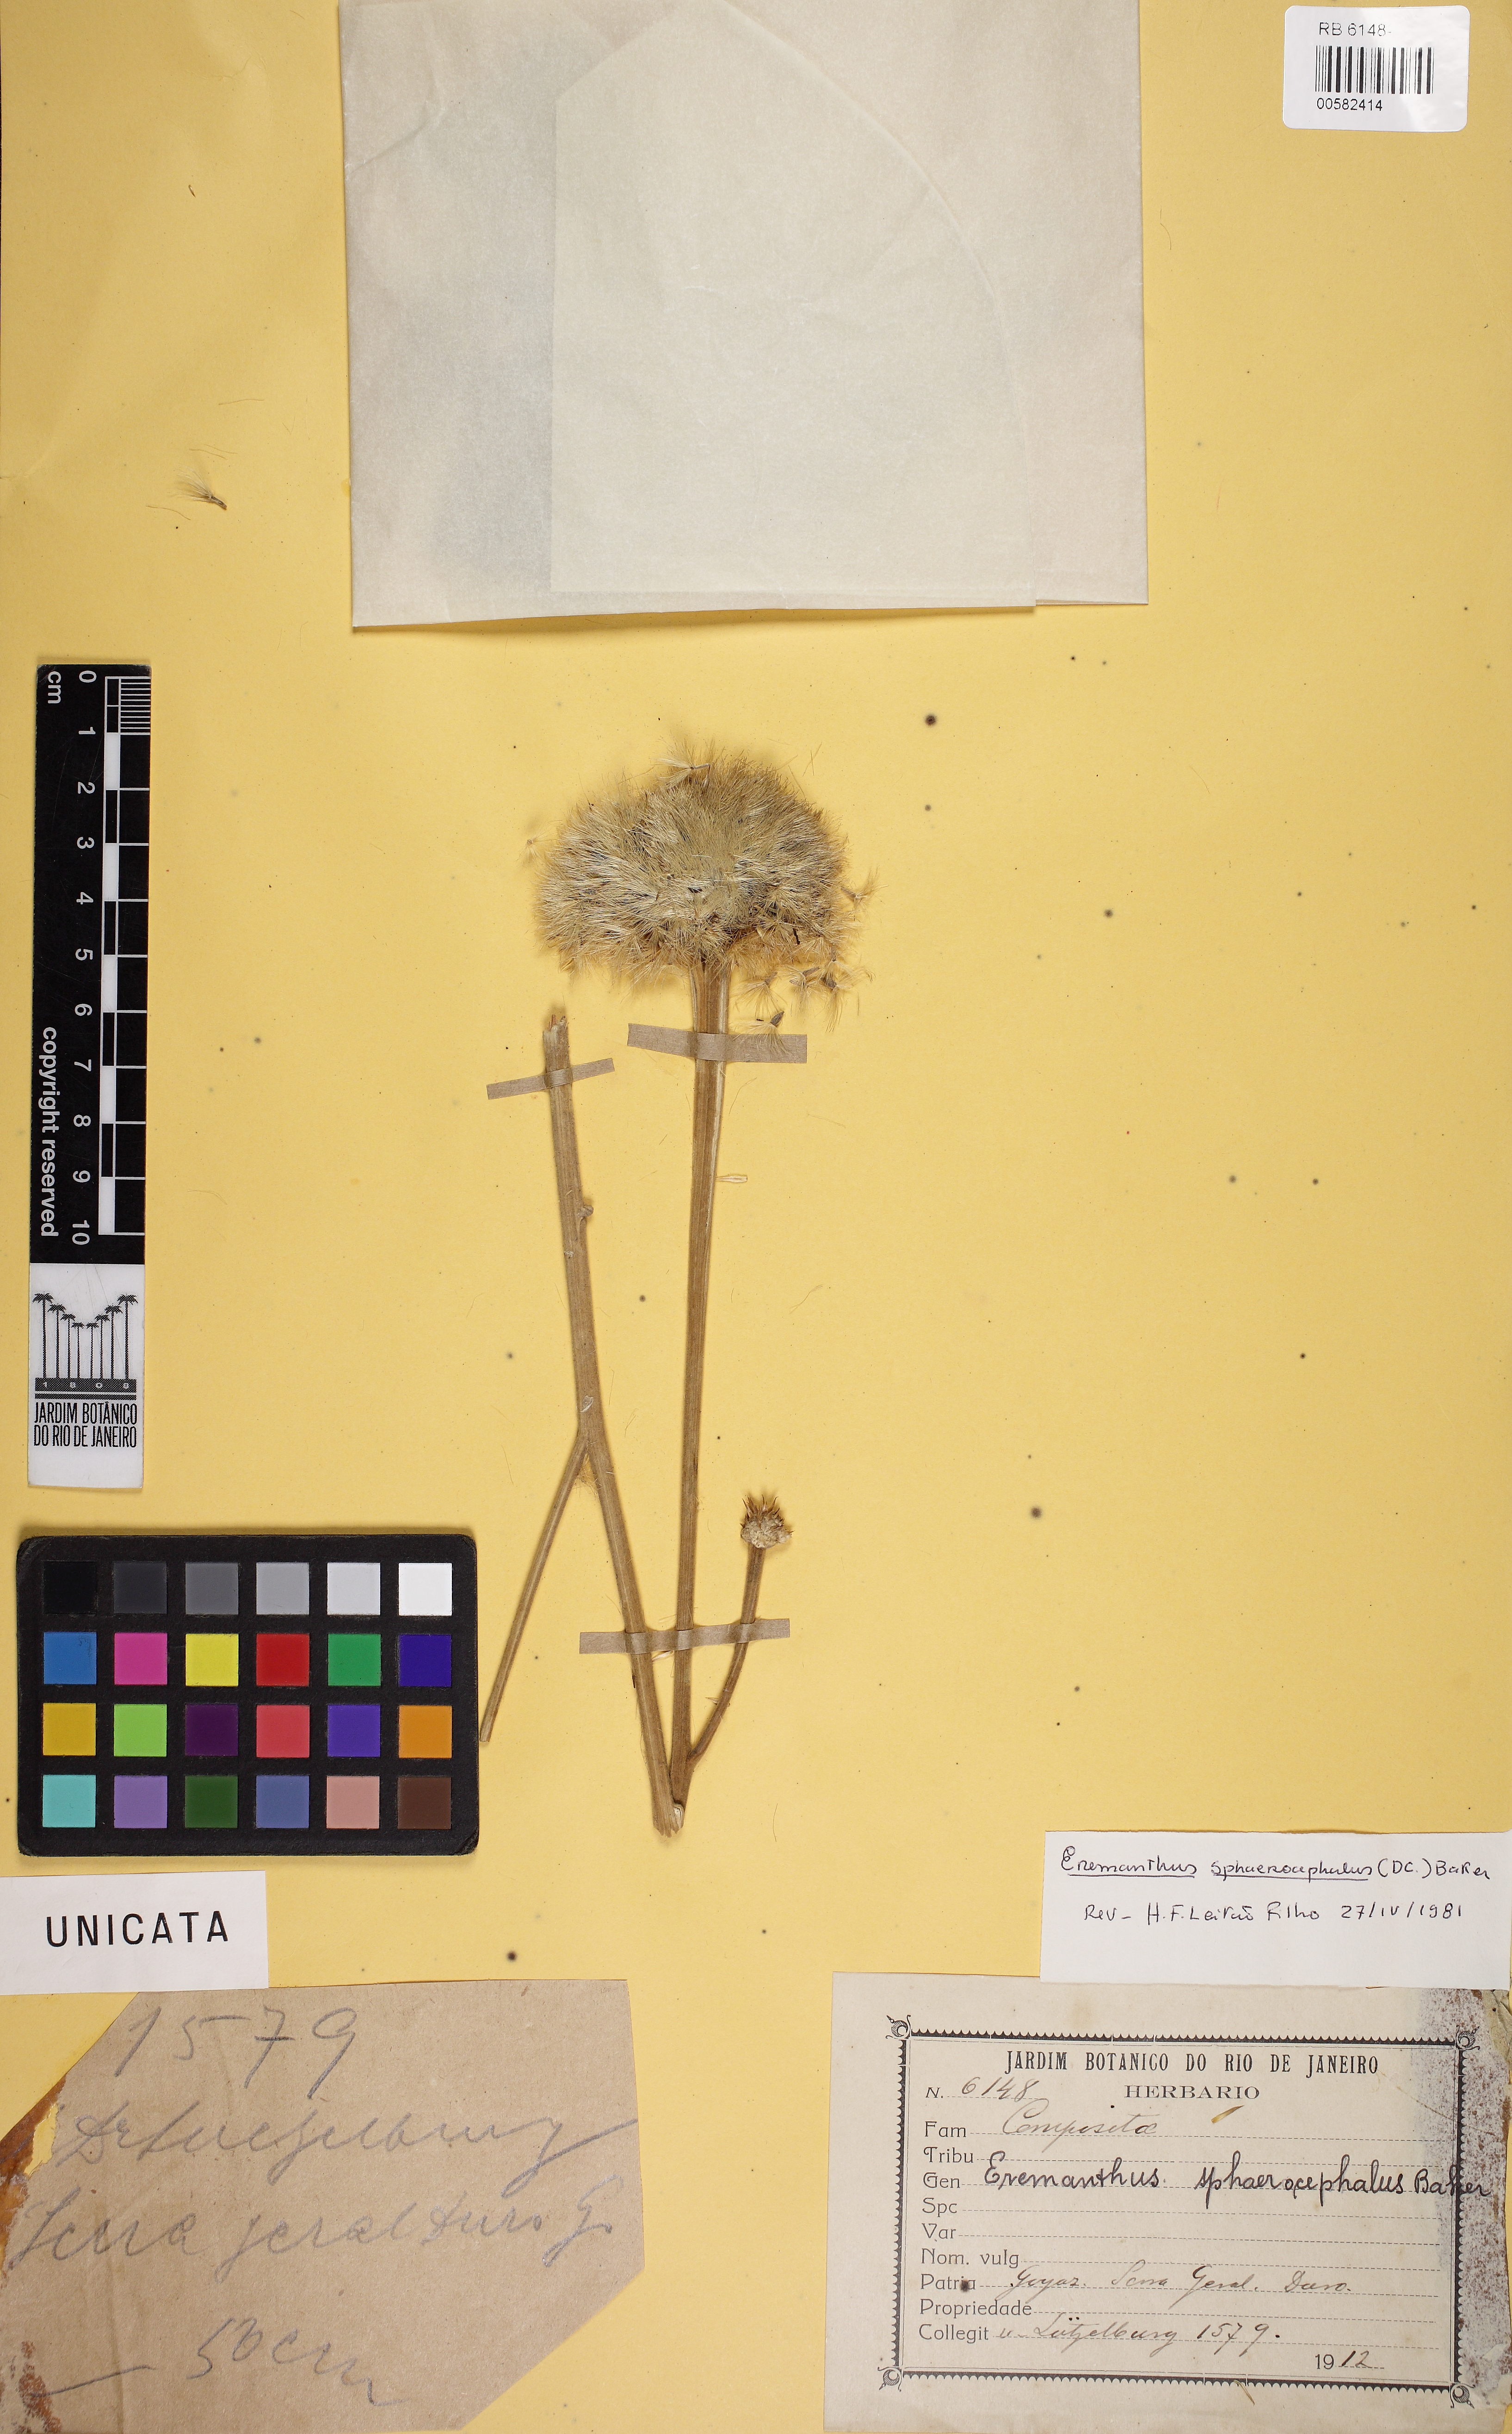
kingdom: Plantae
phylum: Tracheophyta
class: Magnoliopsida
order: Asterales
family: Asteraceae
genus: Chresta
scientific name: Chresta sphaerocephala
